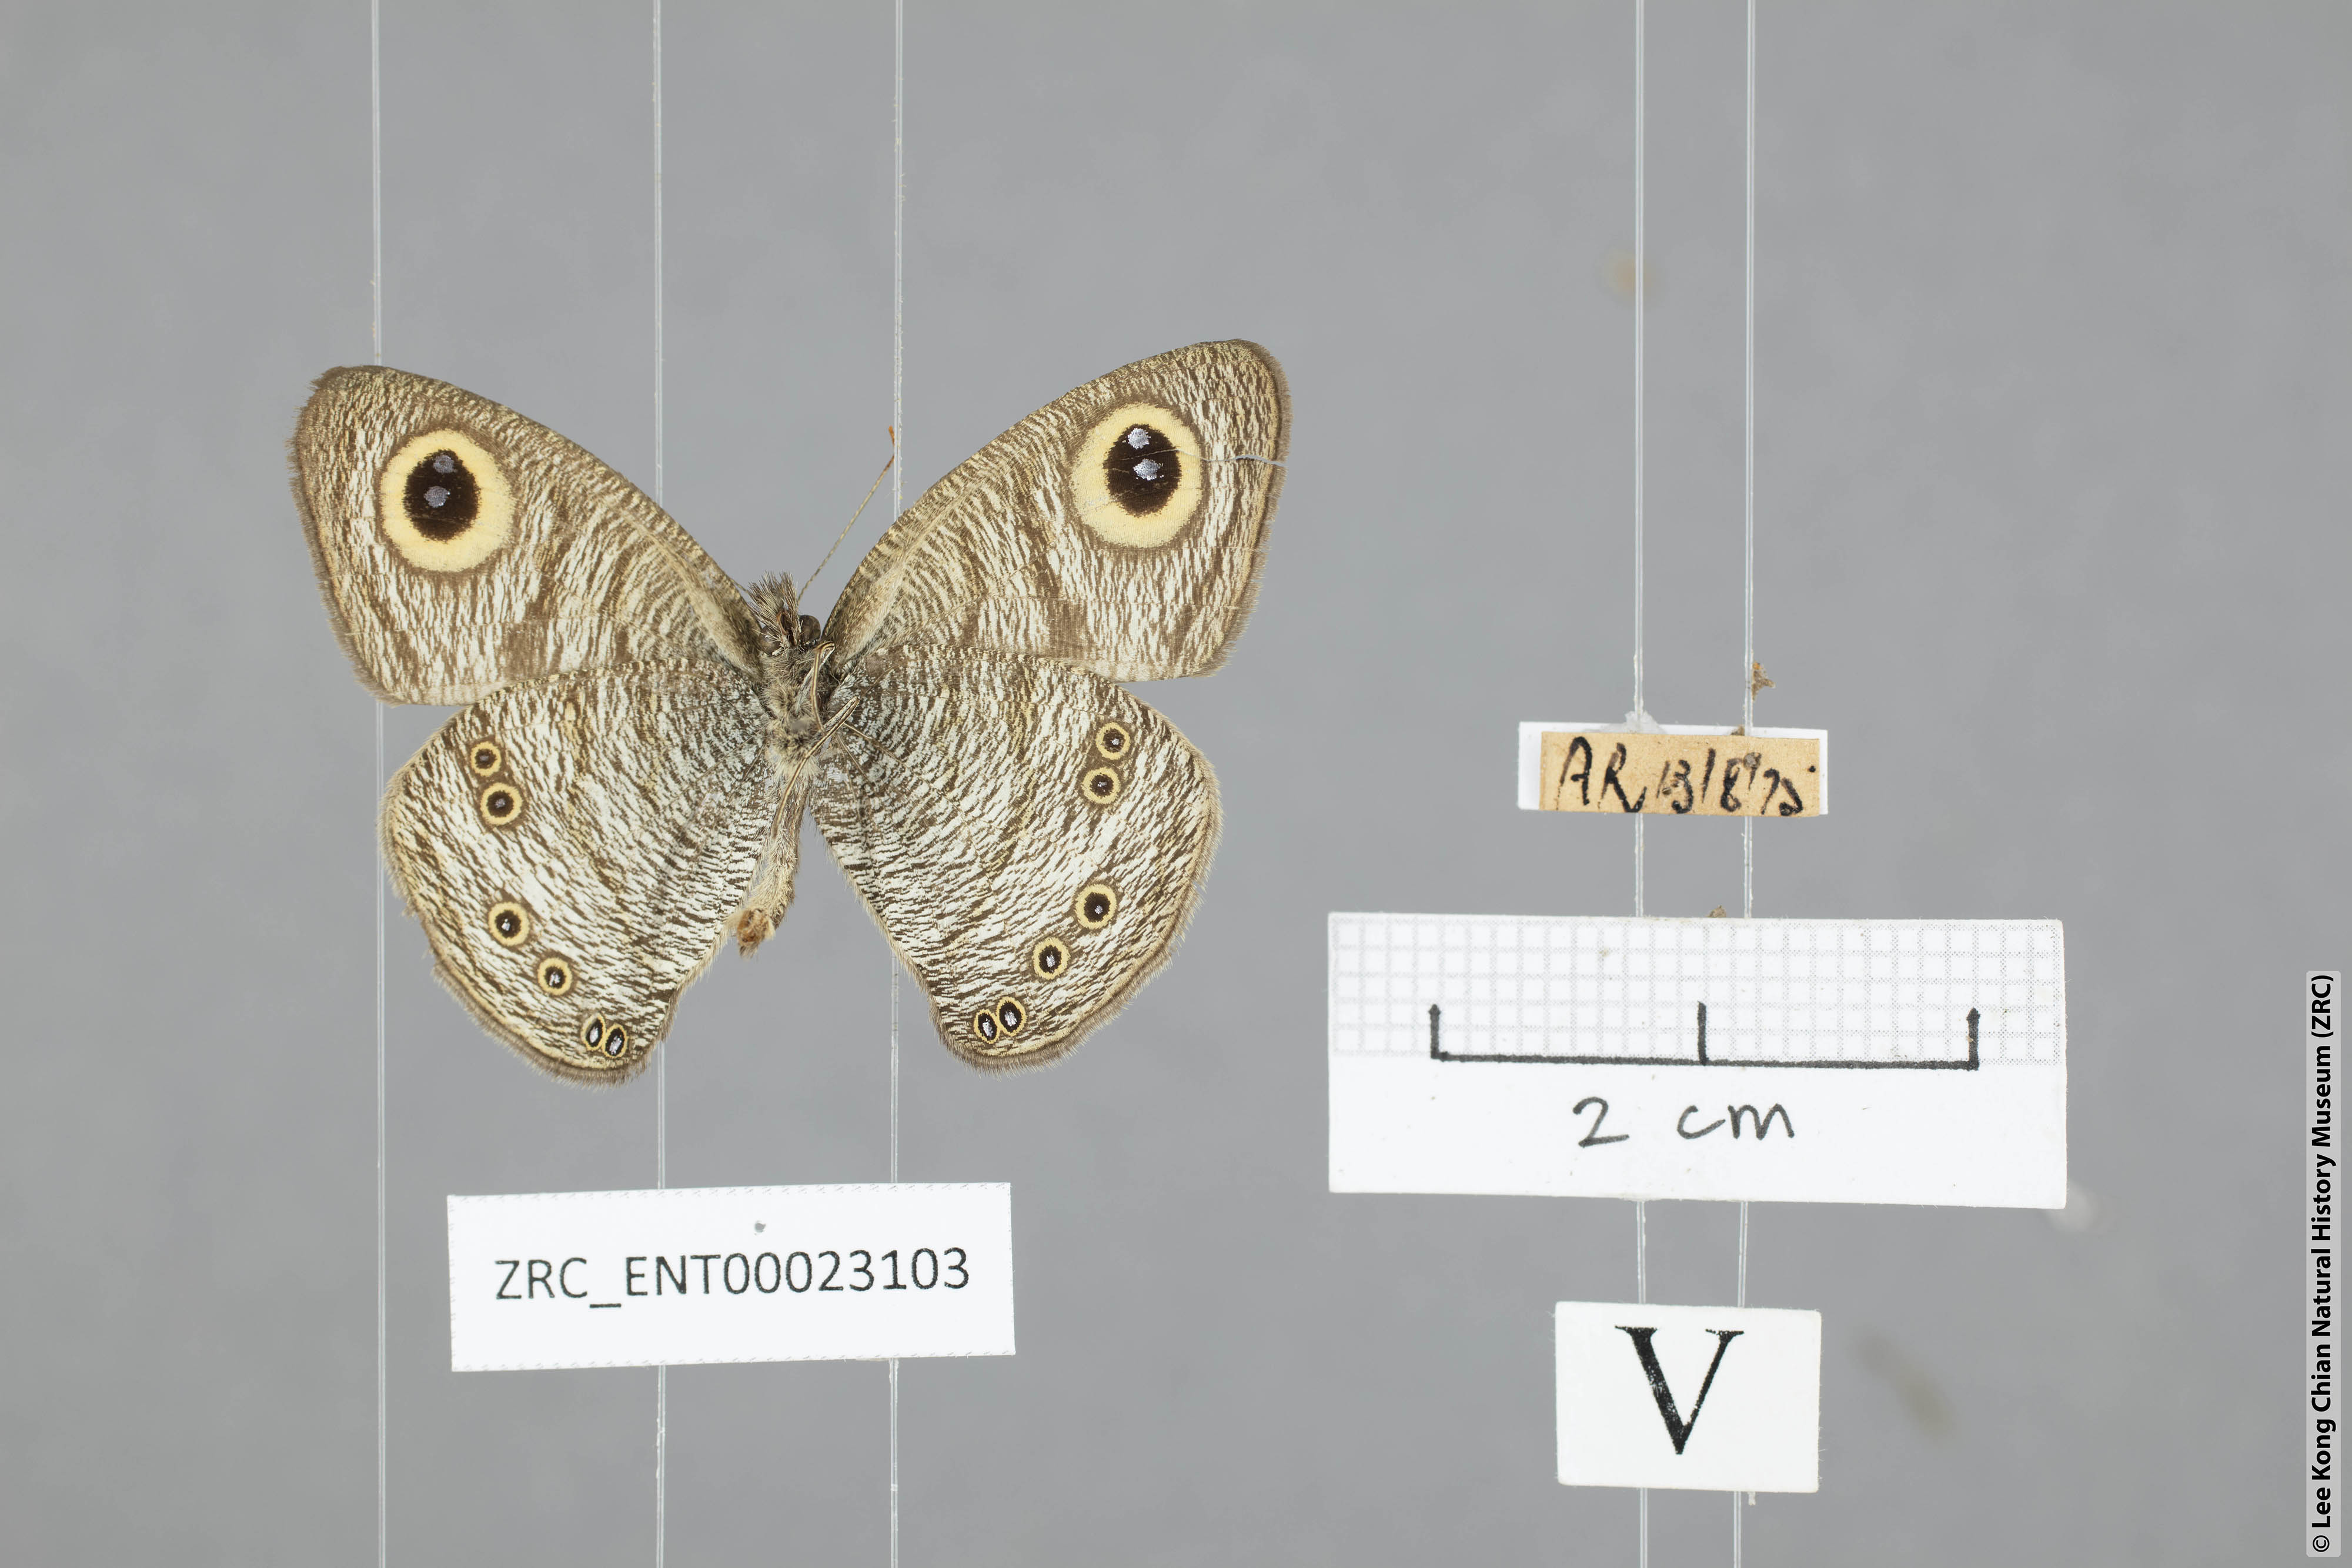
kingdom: Animalia
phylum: Arthropoda
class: Insecta
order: Lepidoptera
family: Nymphalidae
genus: Ypthima
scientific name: Ypthima baldus
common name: Common five-ring
